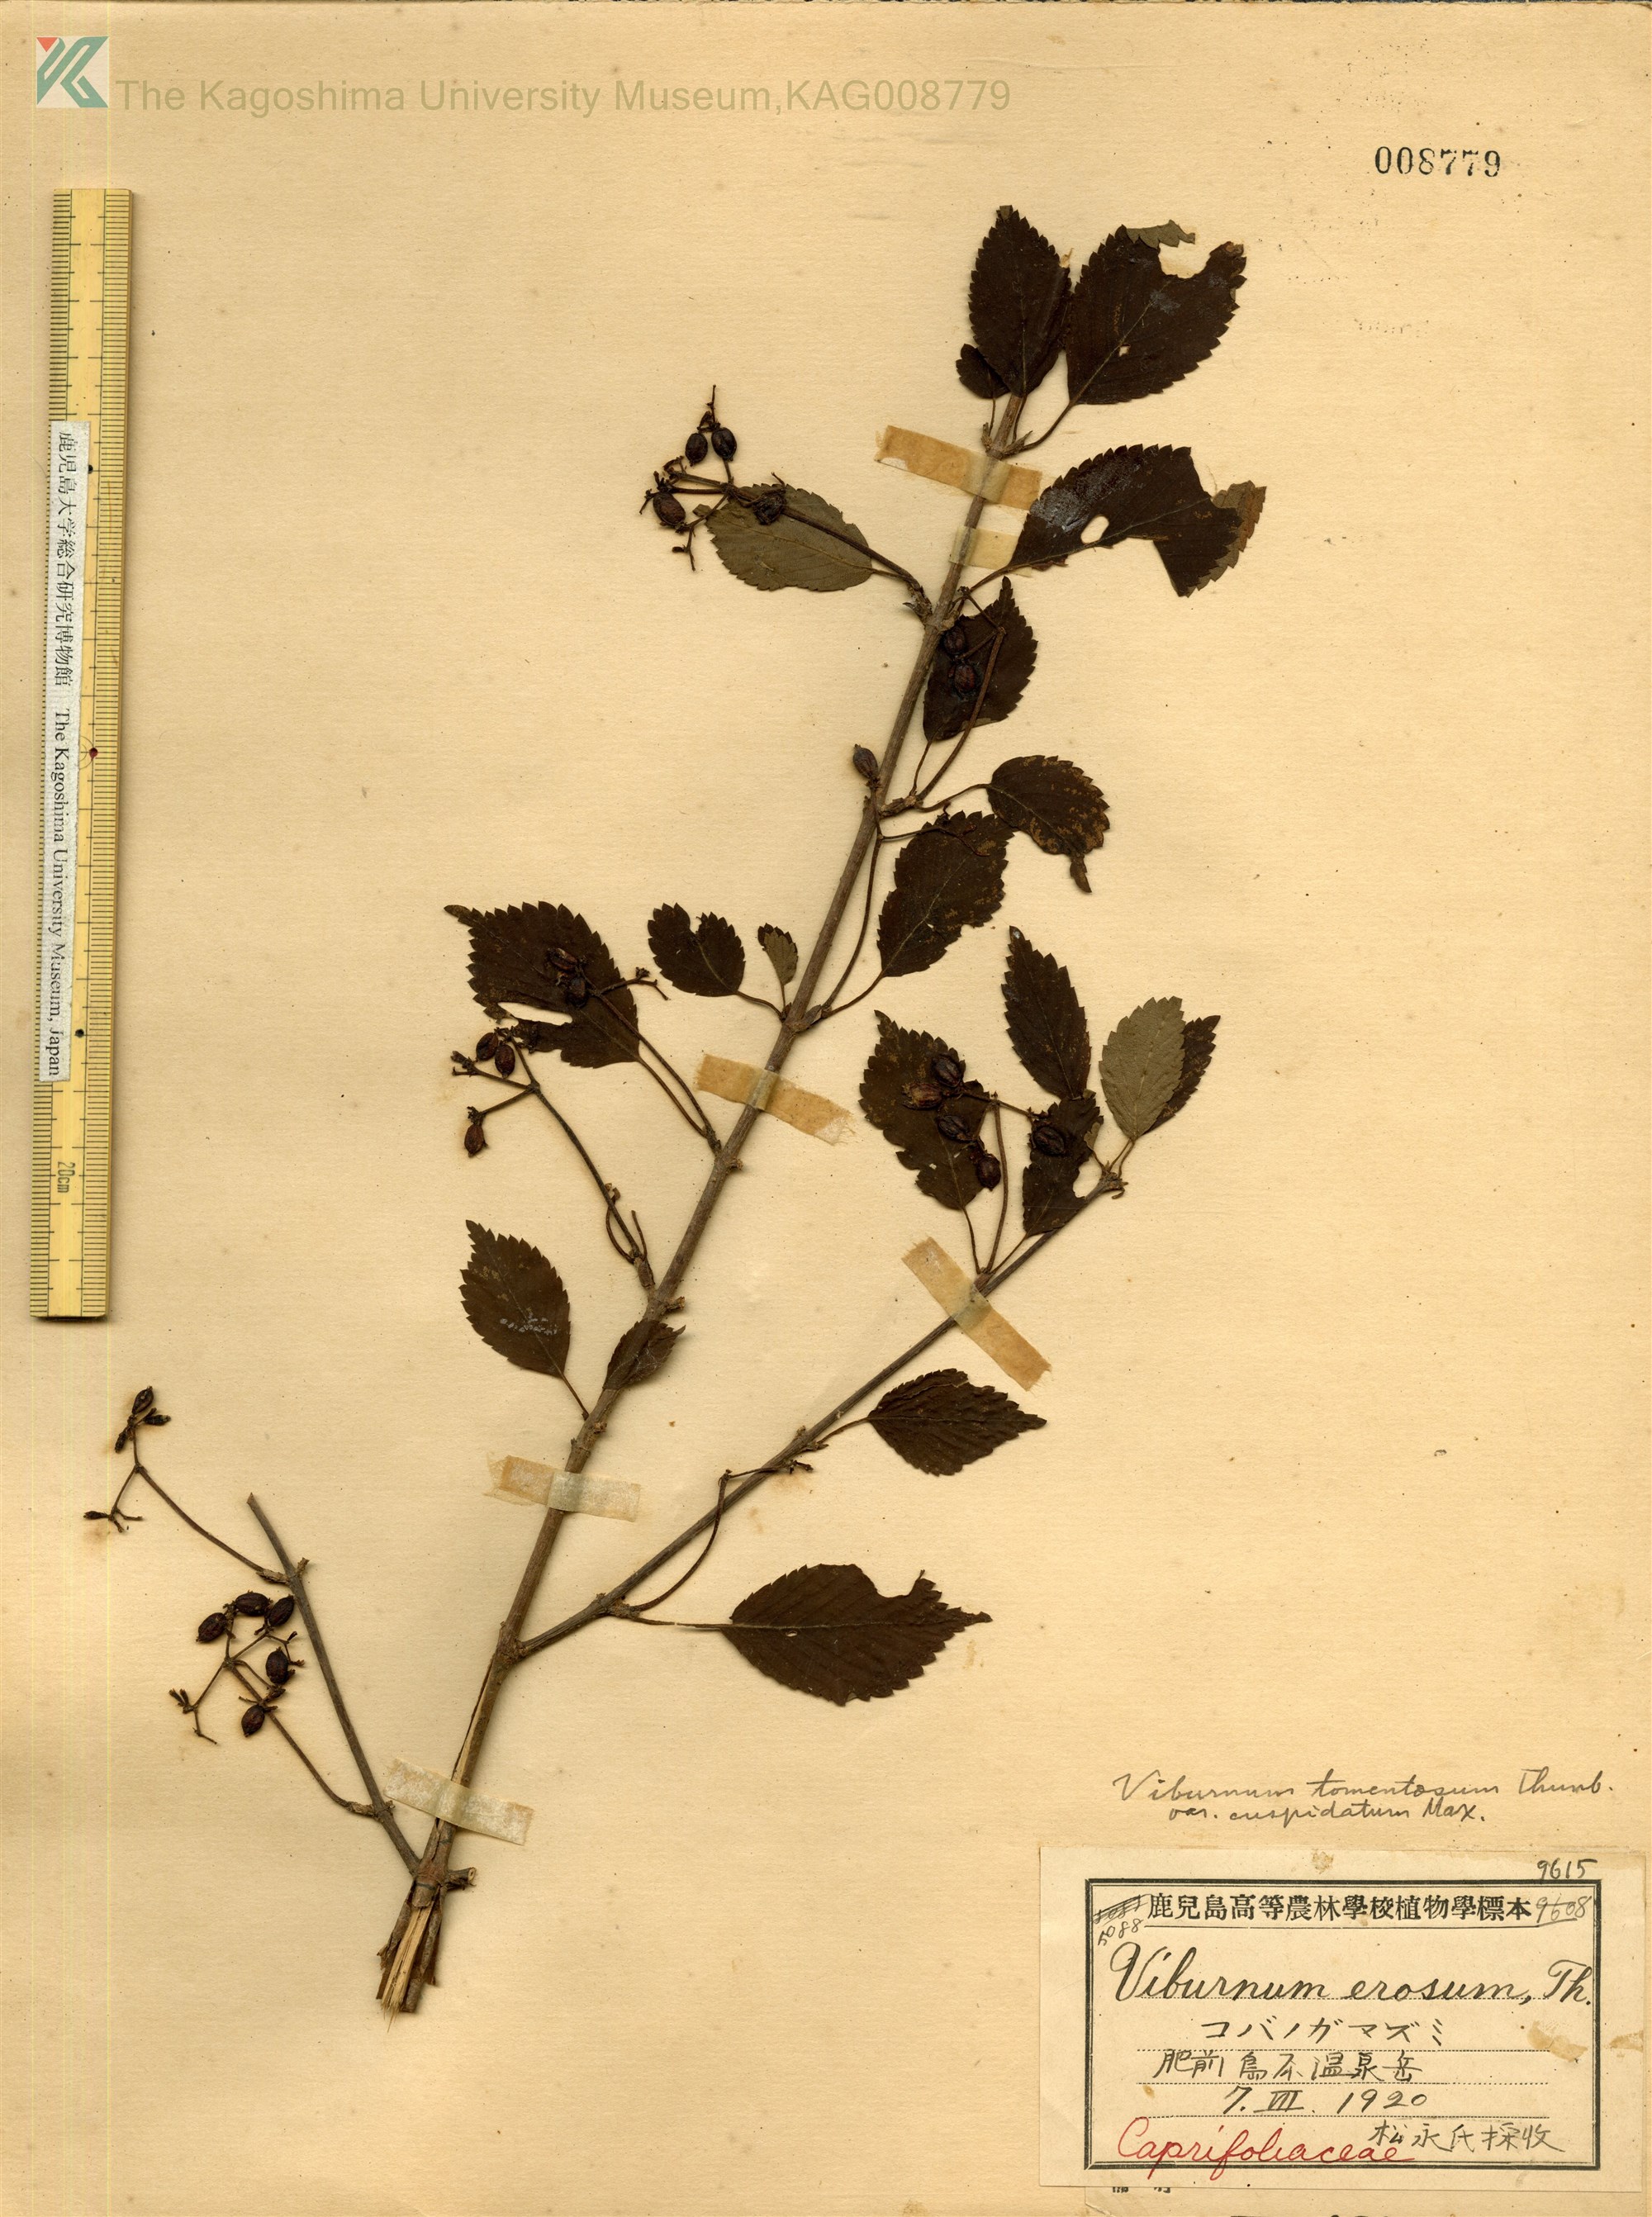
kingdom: Plantae
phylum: Tracheophyta
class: Magnoliopsida
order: Dipsacales
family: Viburnaceae
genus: Viburnum
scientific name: Viburnum plicatum
